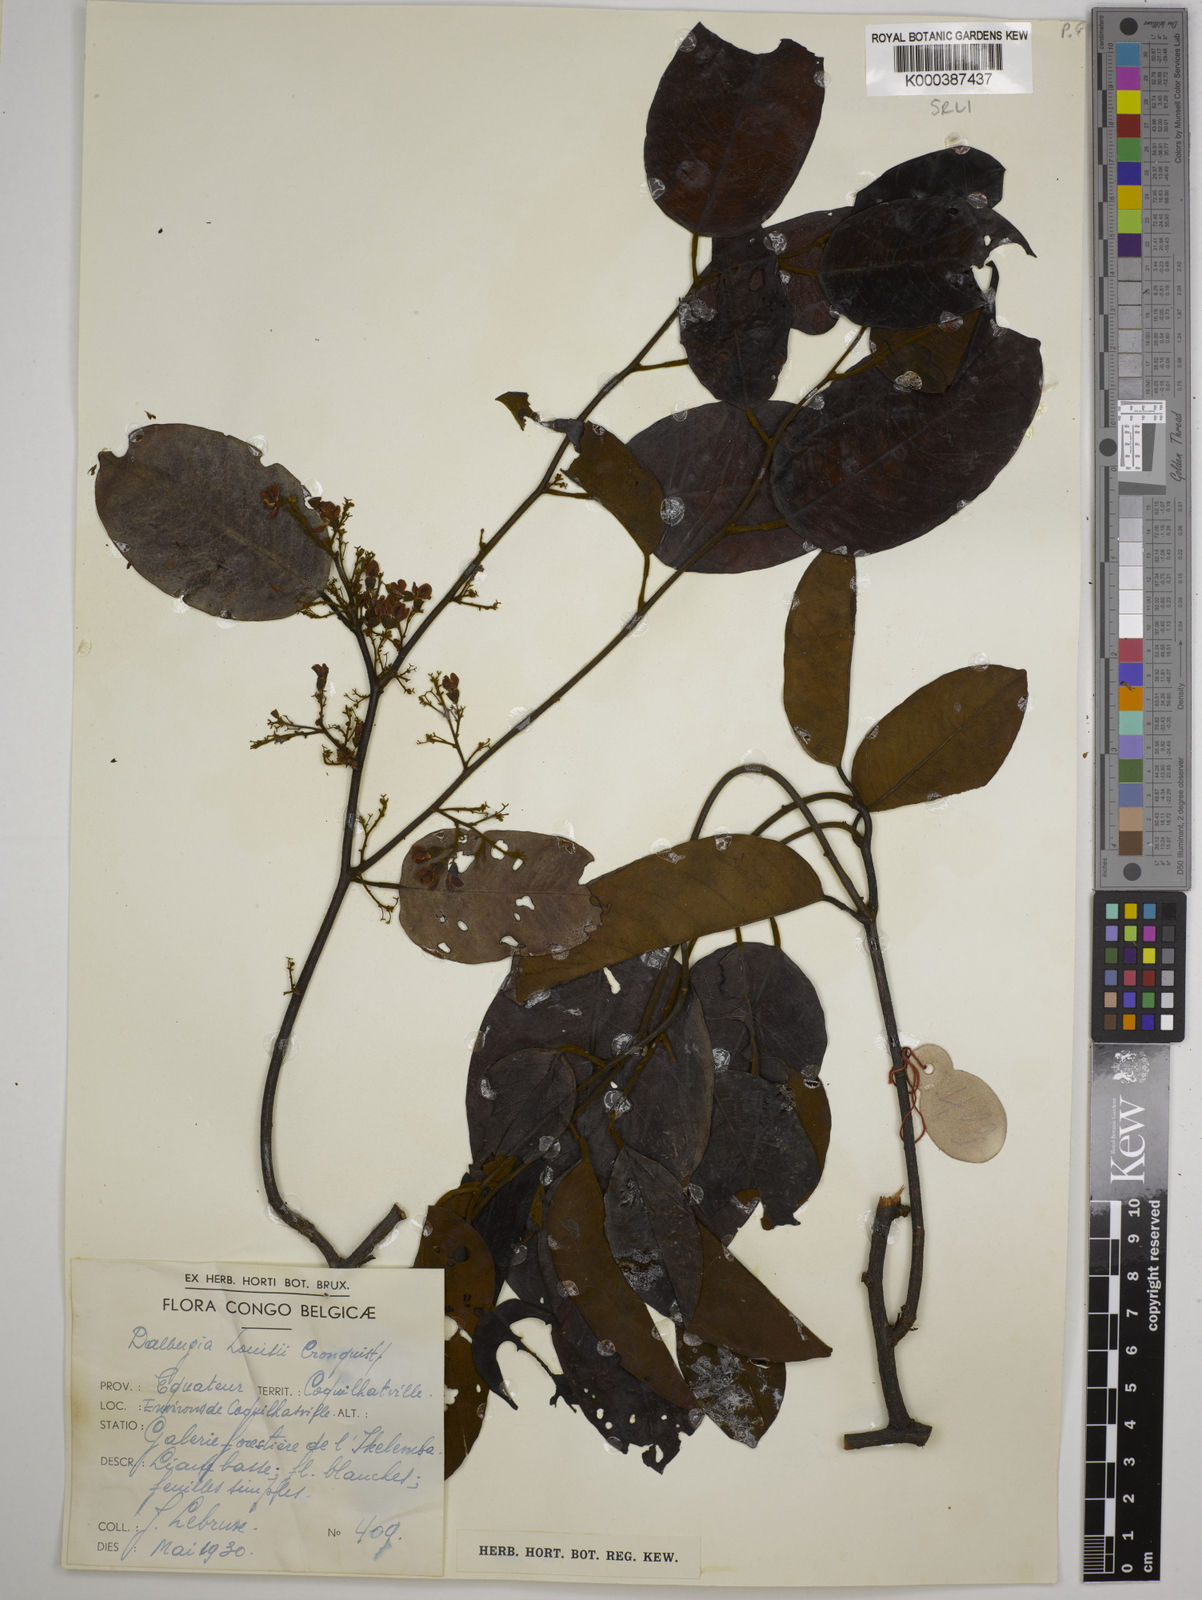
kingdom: Plantae
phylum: Tracheophyta
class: Magnoliopsida
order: Fabales
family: Fabaceae
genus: Dalbergia
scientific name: Dalbergia louisii
